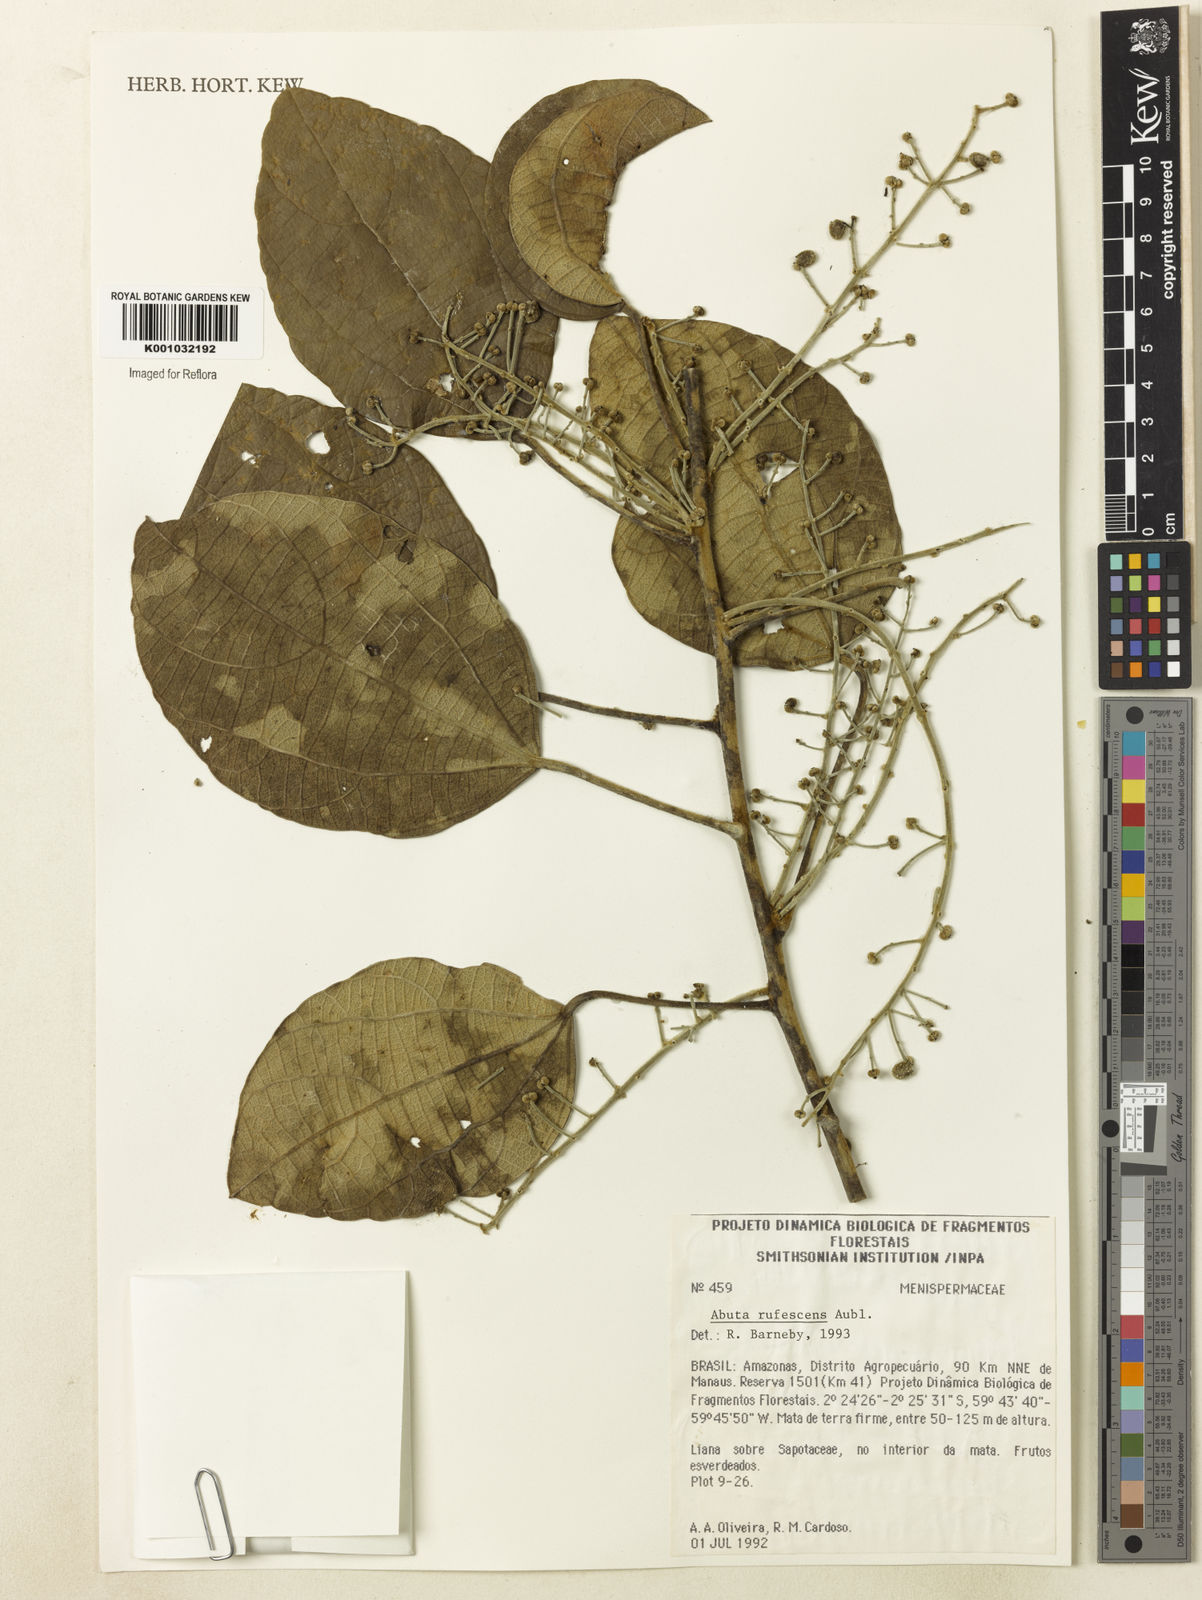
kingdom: Plantae
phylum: Tracheophyta
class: Magnoliopsida
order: Ranunculales
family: Menispermaceae
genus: Abuta
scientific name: Abuta
